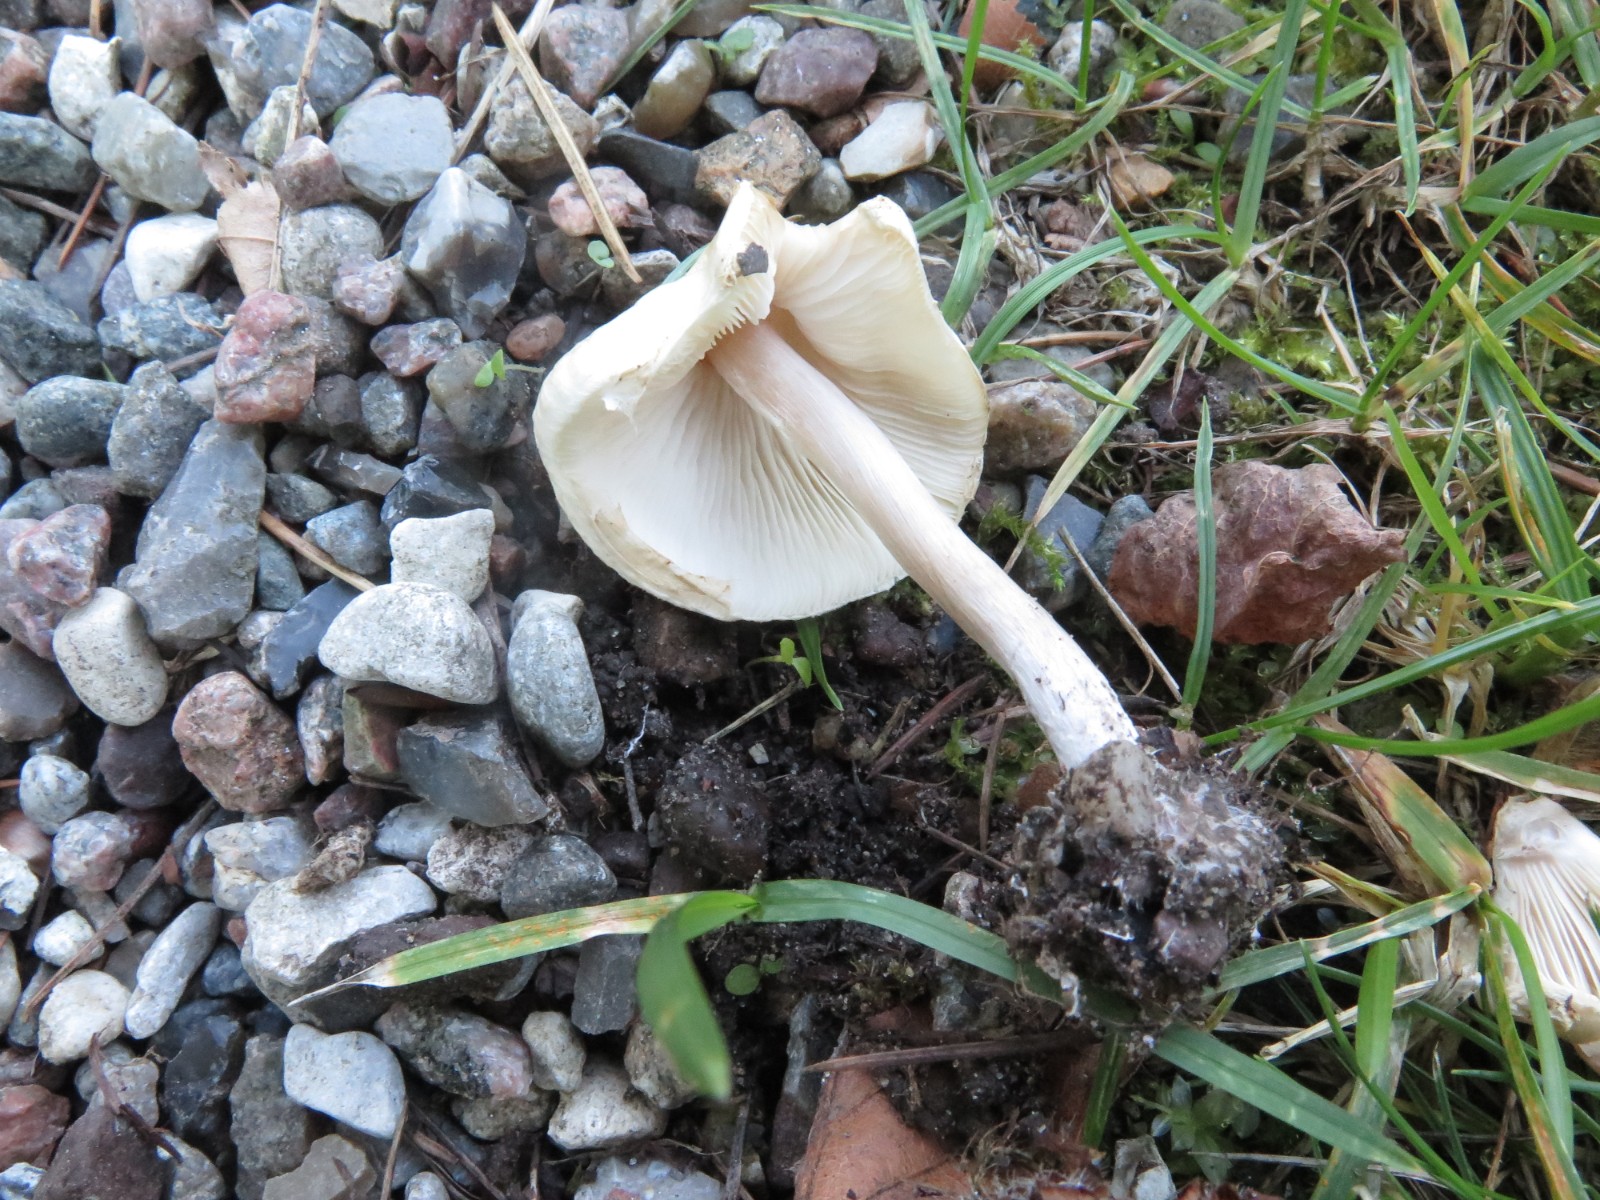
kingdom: Fungi
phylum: Basidiomycota
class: Agaricomycetes
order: Agaricales
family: Agaricaceae
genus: Lepiota
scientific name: Lepiota cristata
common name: stinkende parasolhat
